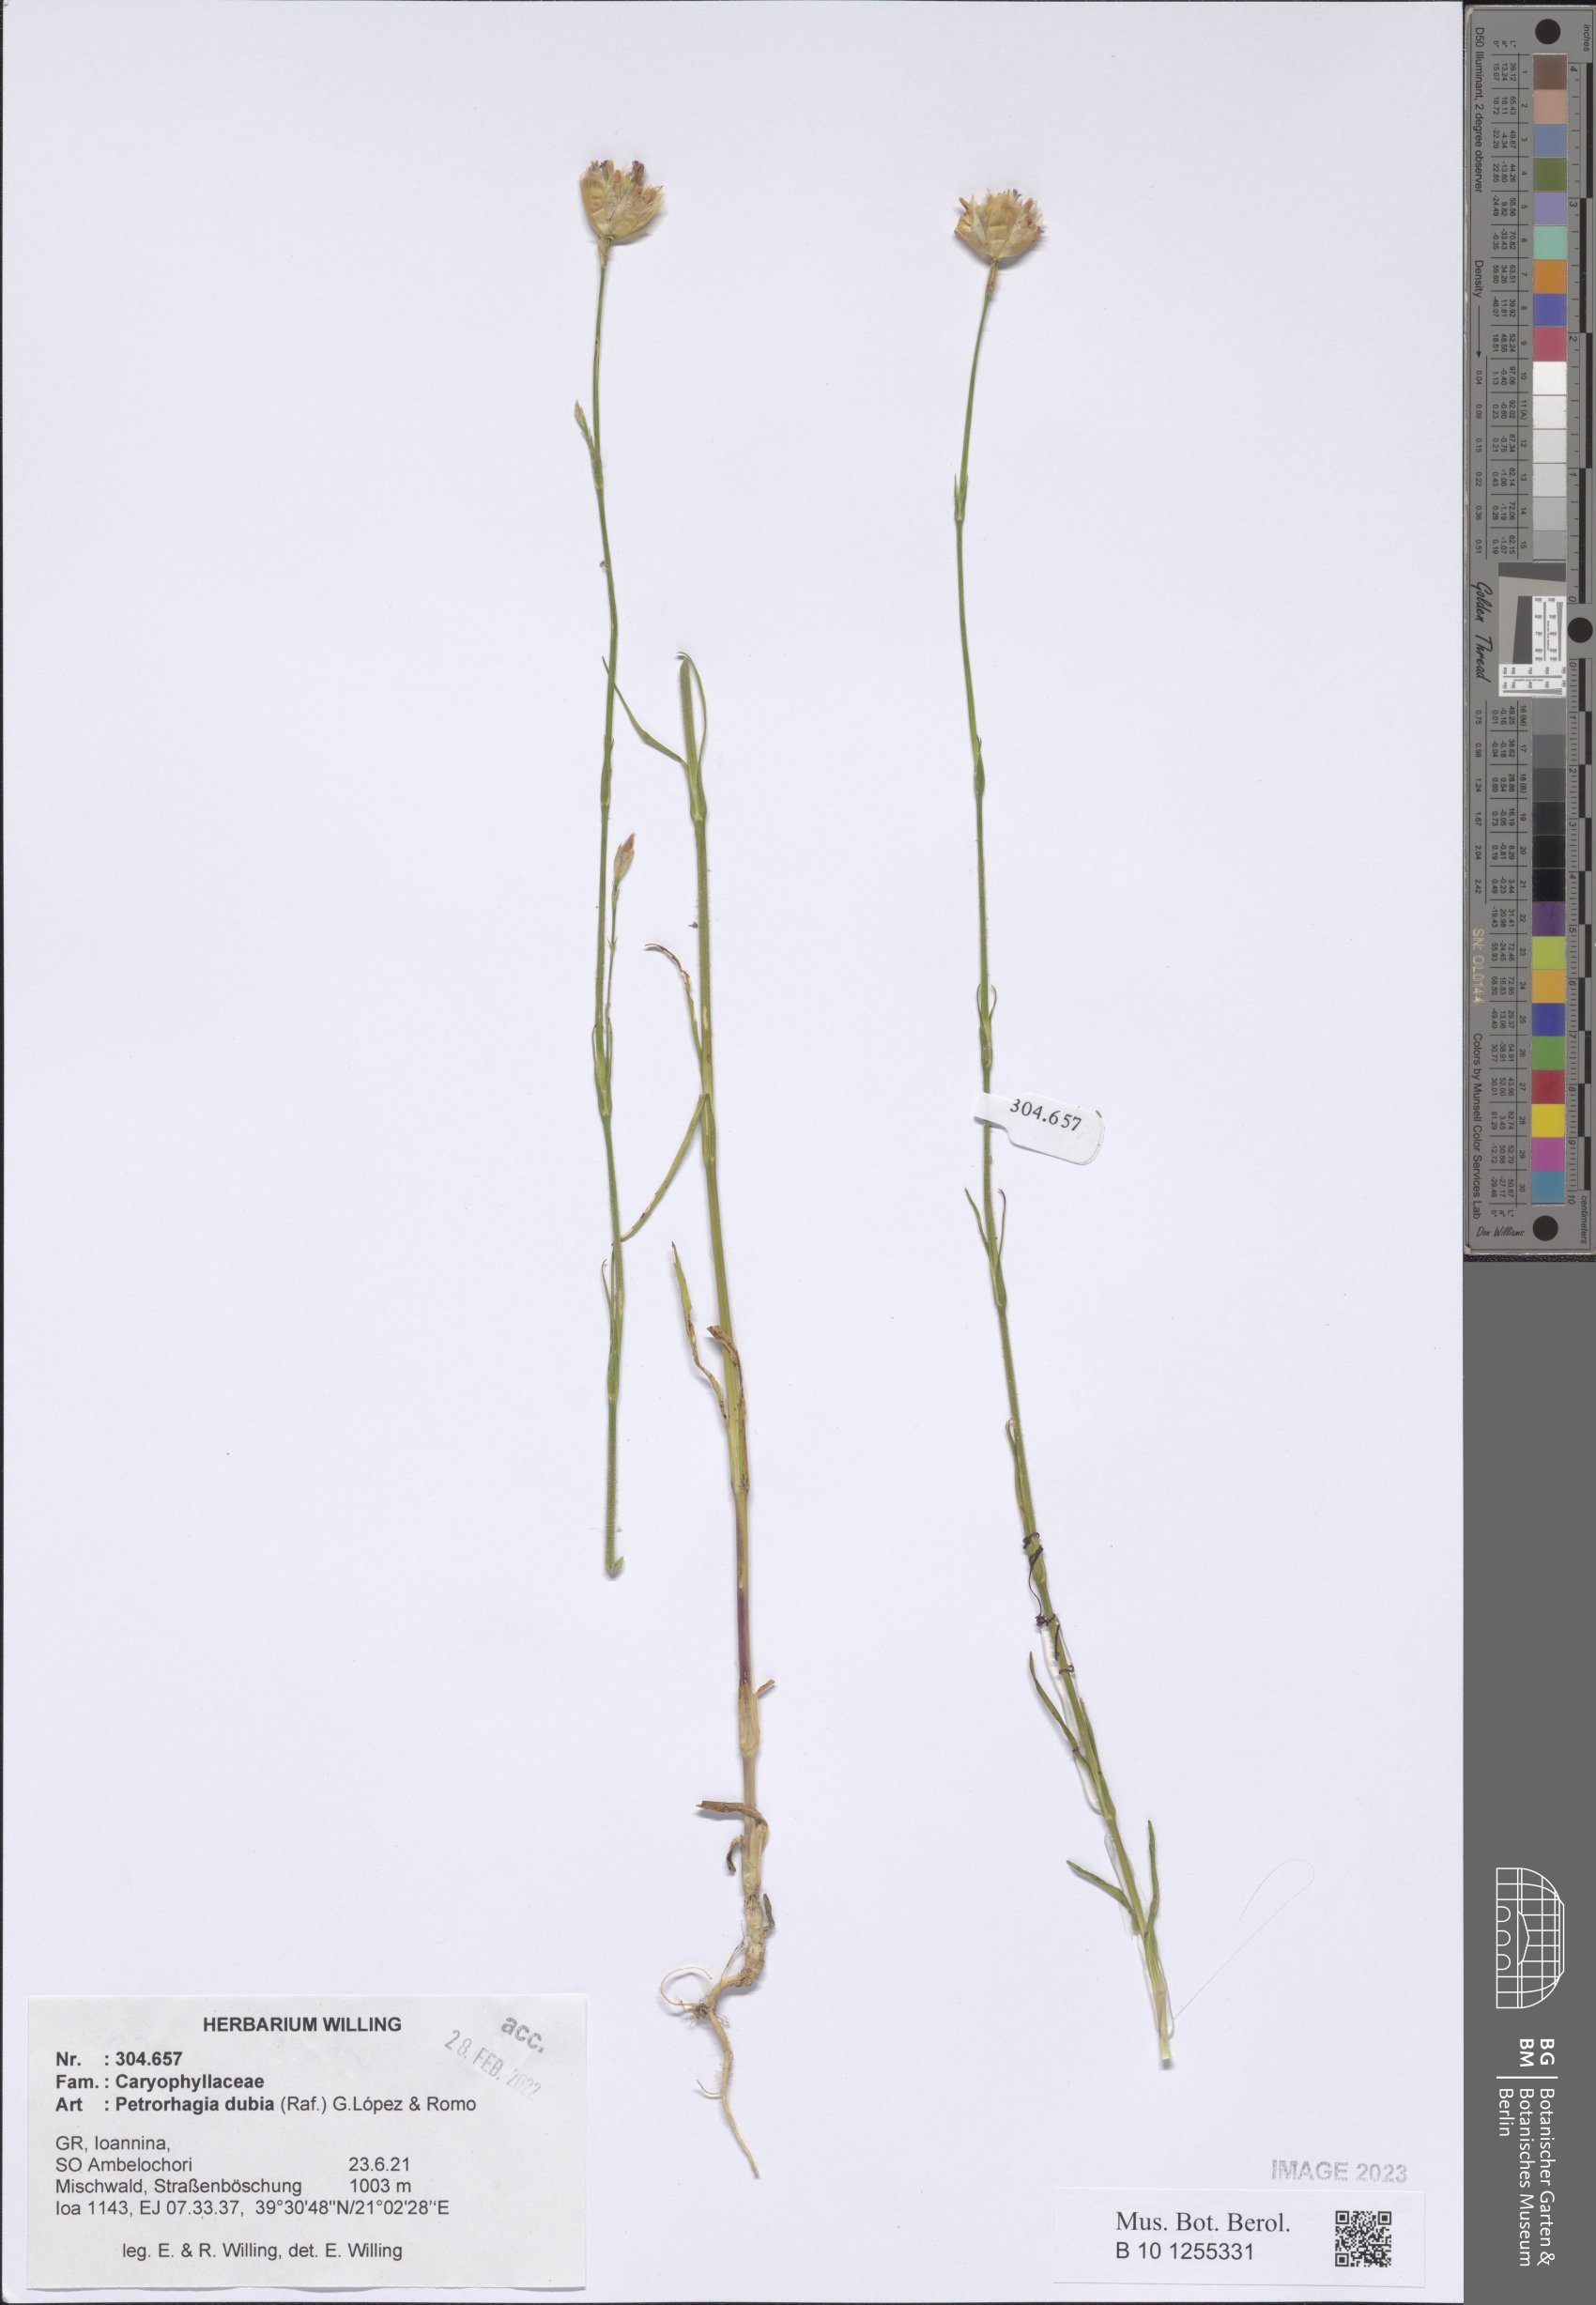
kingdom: Plantae
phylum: Tracheophyta
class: Magnoliopsida
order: Caryophyllales
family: Caryophyllaceae
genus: Petrorhagia
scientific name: Petrorhagia dubia
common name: Hairypink
